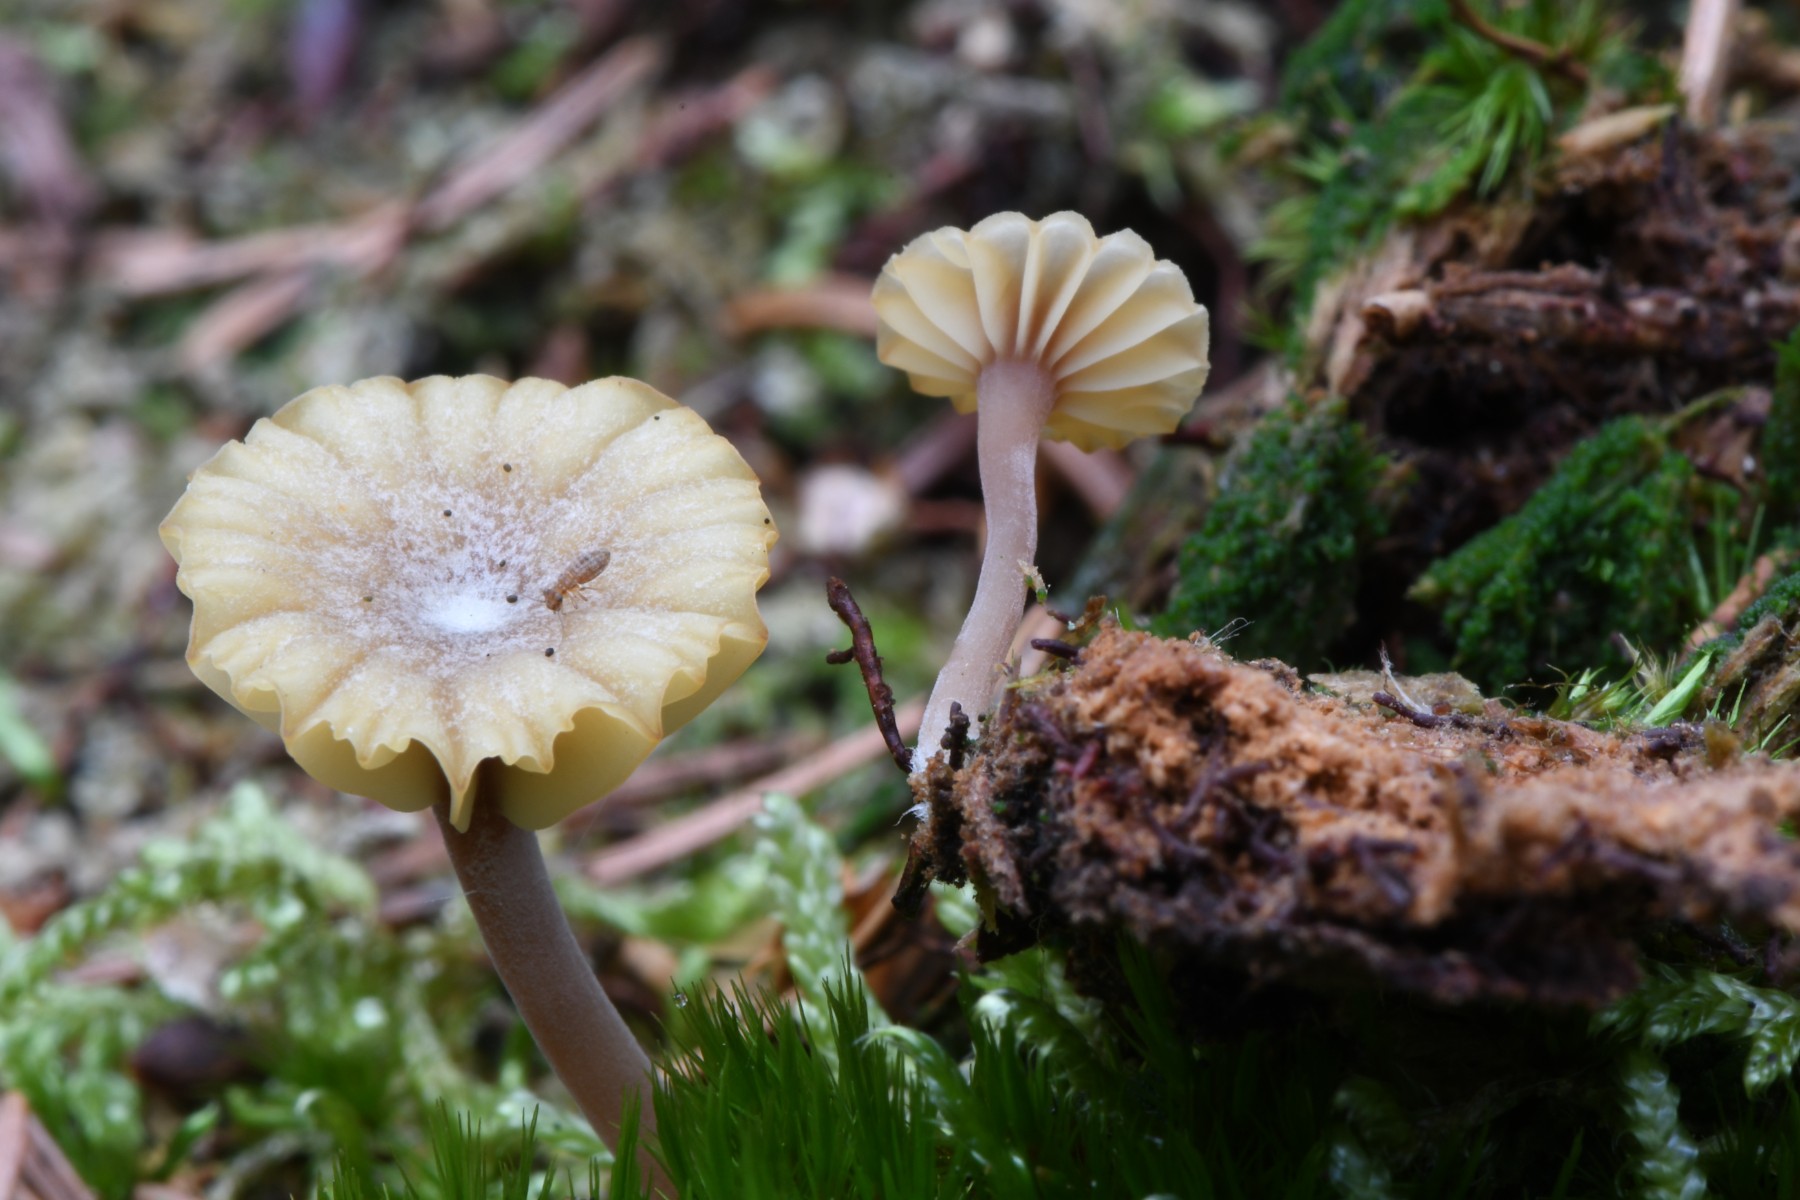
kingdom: Fungi
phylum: Basidiomycota
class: Agaricomycetes
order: Agaricales
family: Hygrophoraceae
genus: Lichenomphalia
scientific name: Lichenomphalia umbellifera
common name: tørve-lavhat
